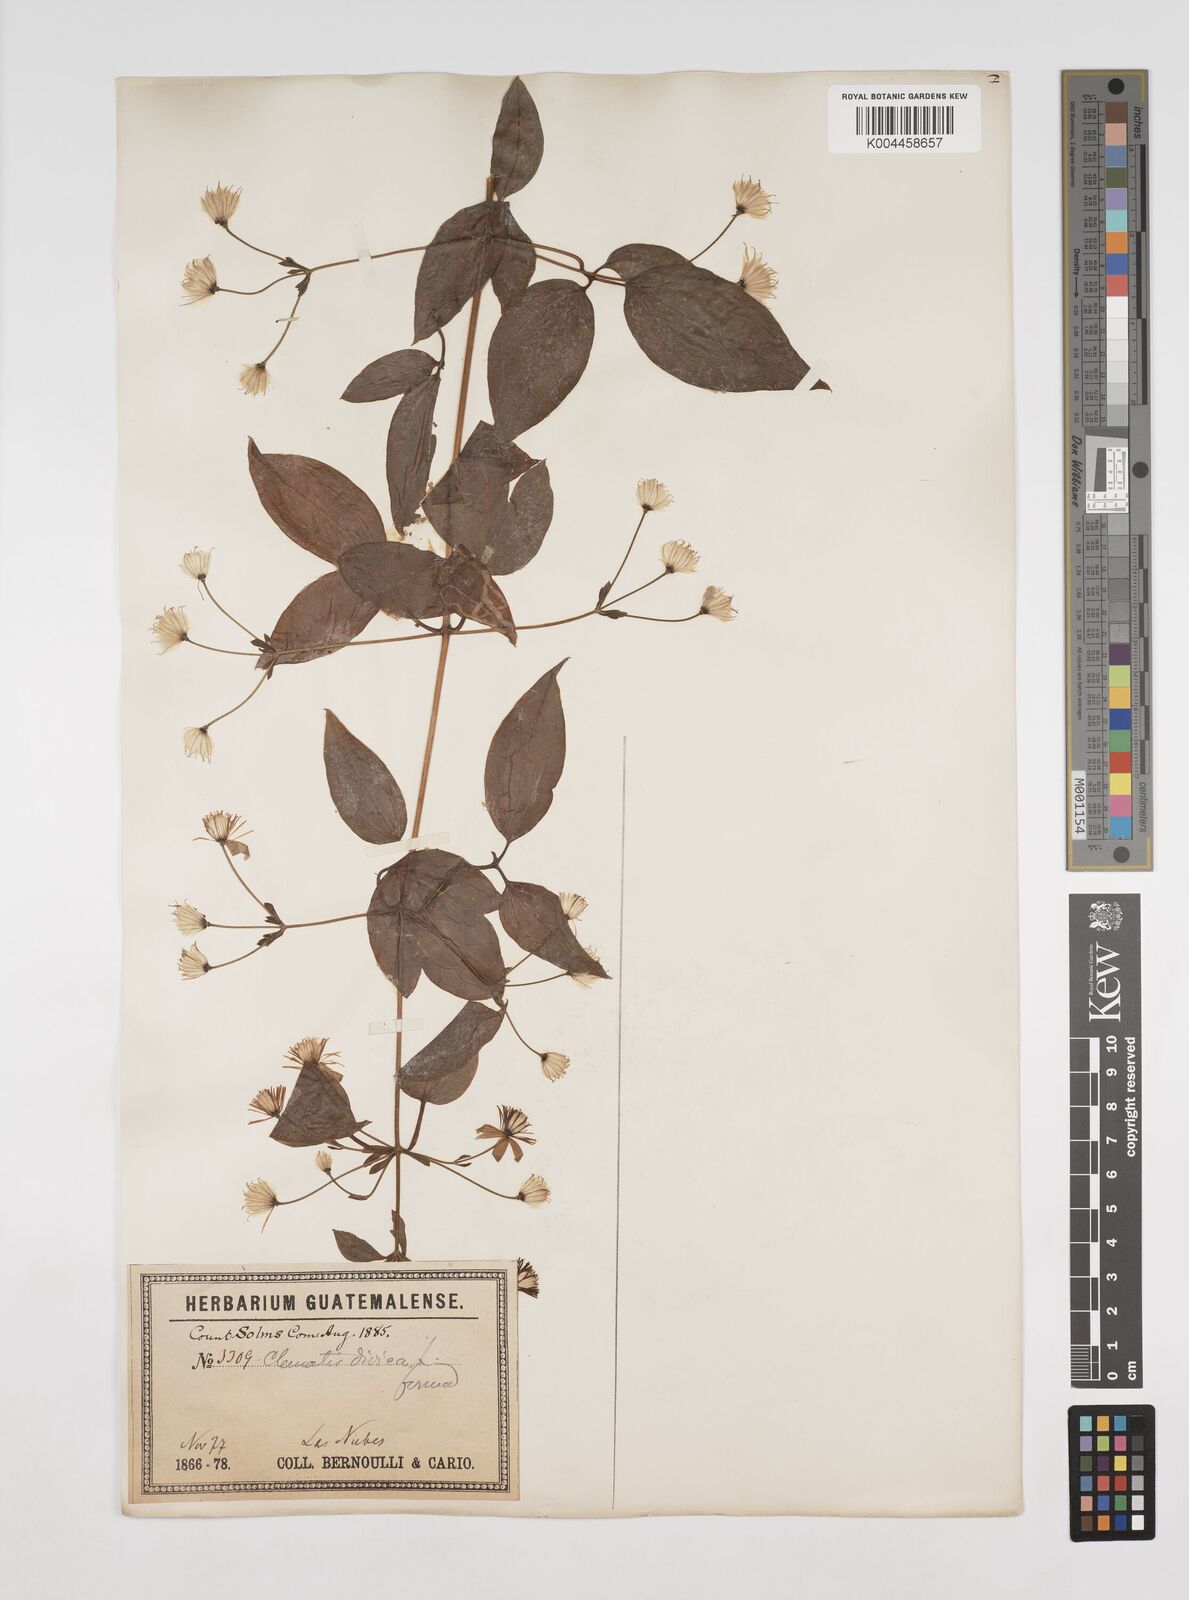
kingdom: Plantae
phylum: Tracheophyta
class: Magnoliopsida
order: Ranunculales
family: Ranunculaceae
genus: Clematis
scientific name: Clematis dioica
